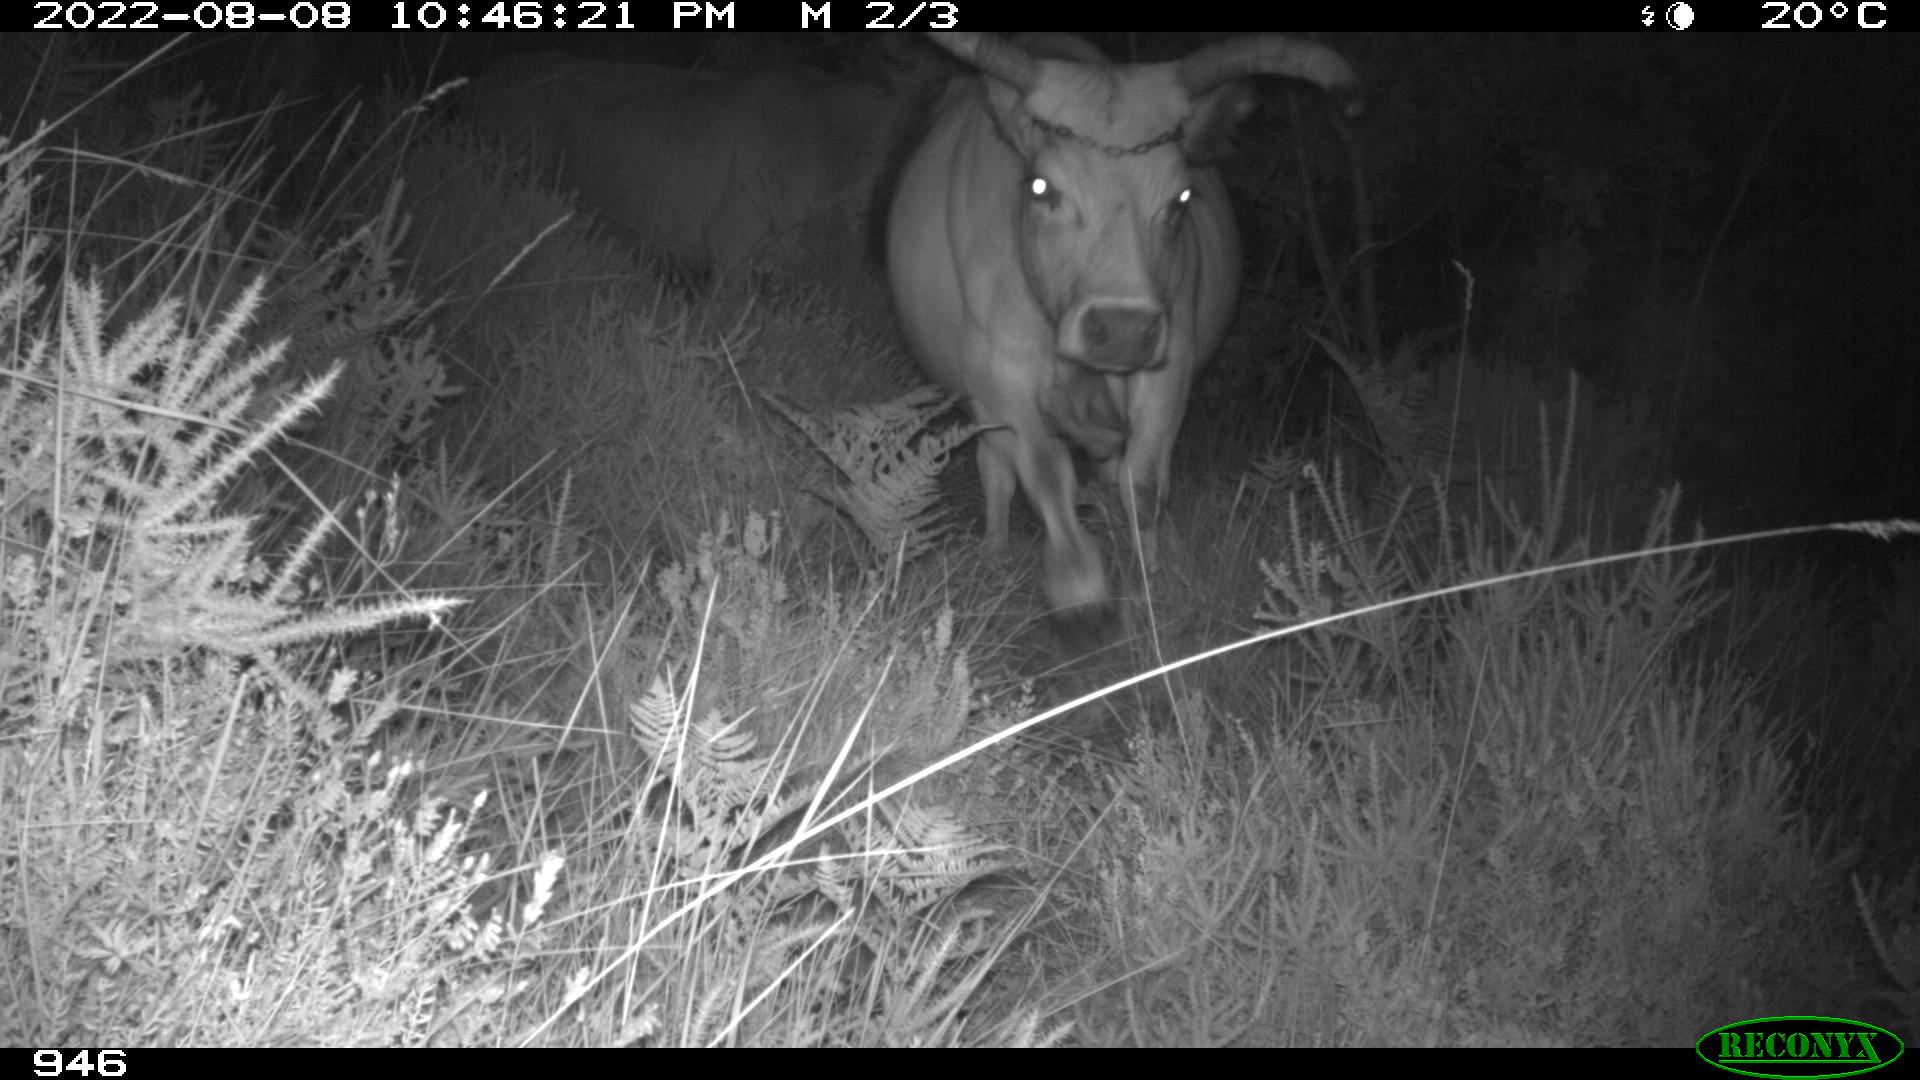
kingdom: Animalia
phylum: Chordata
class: Mammalia
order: Artiodactyla
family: Bovidae
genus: Bos
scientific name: Bos taurus
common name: Domesticated cattle
